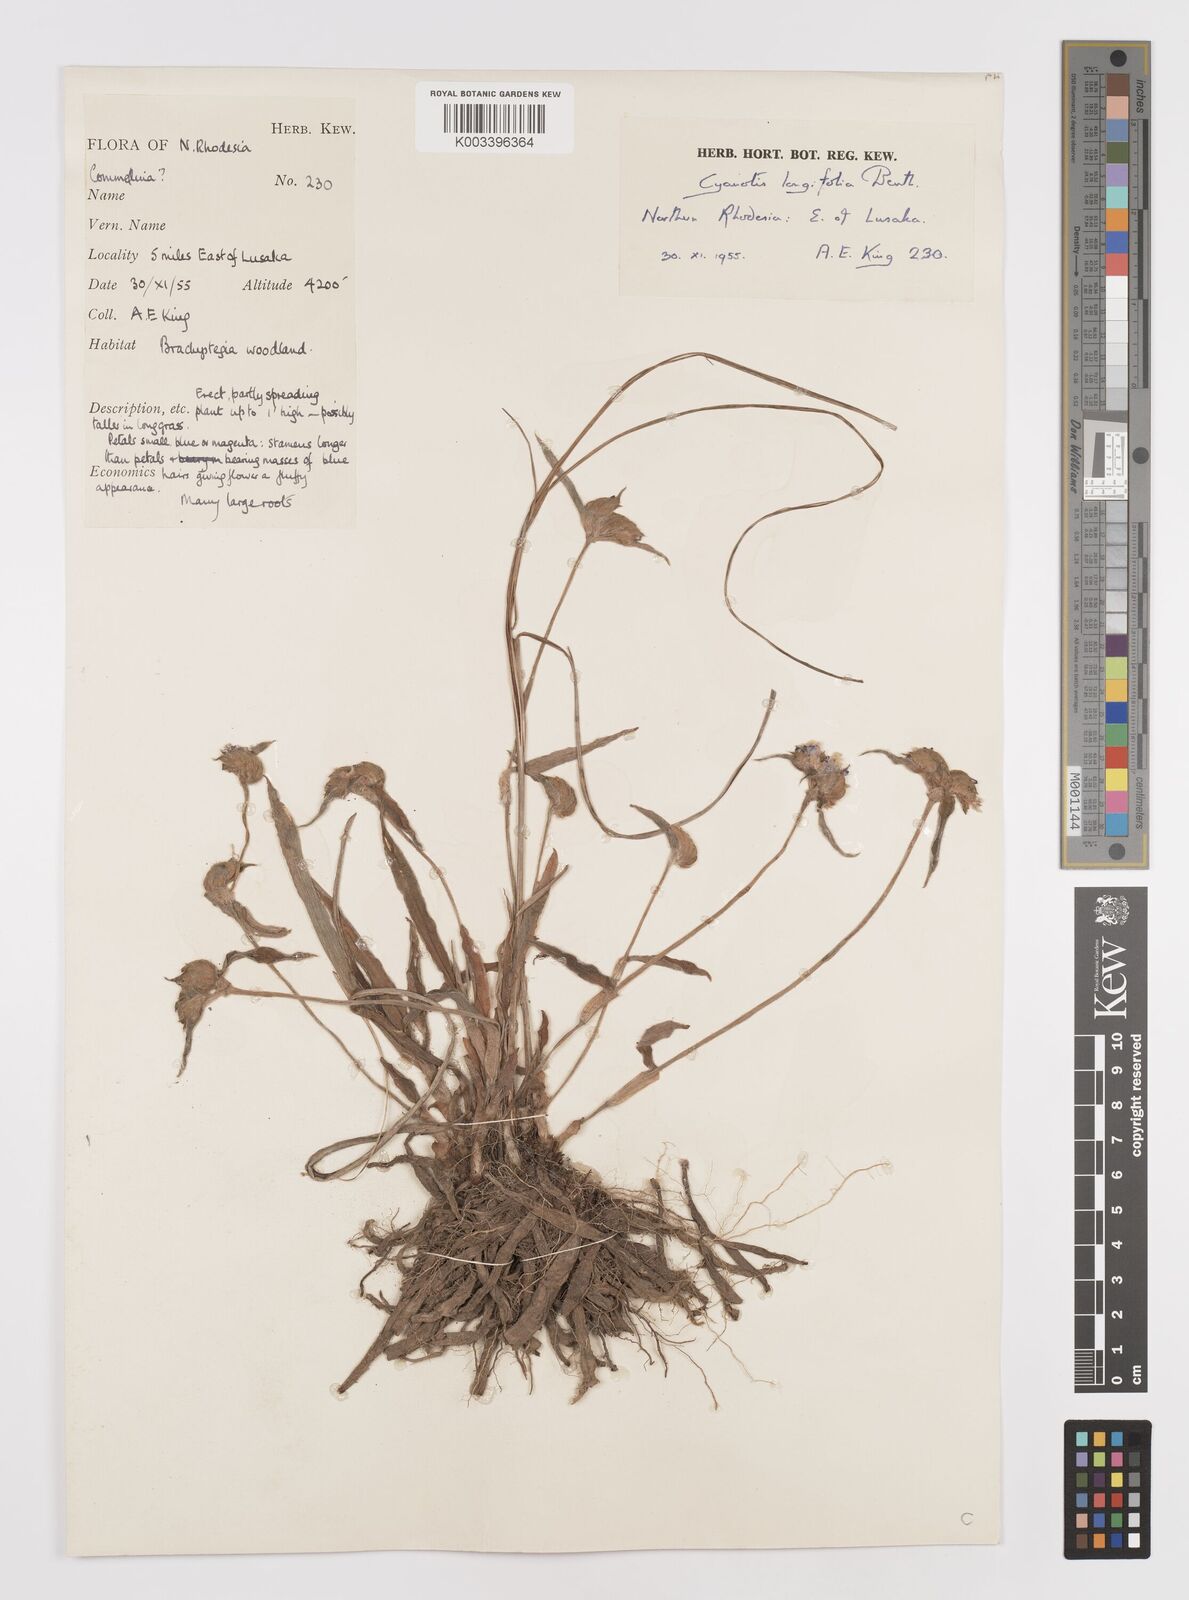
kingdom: Plantae
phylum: Tracheophyta
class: Liliopsida
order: Commelinales
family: Commelinaceae
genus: Cyanotis
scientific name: Cyanotis longifolia
